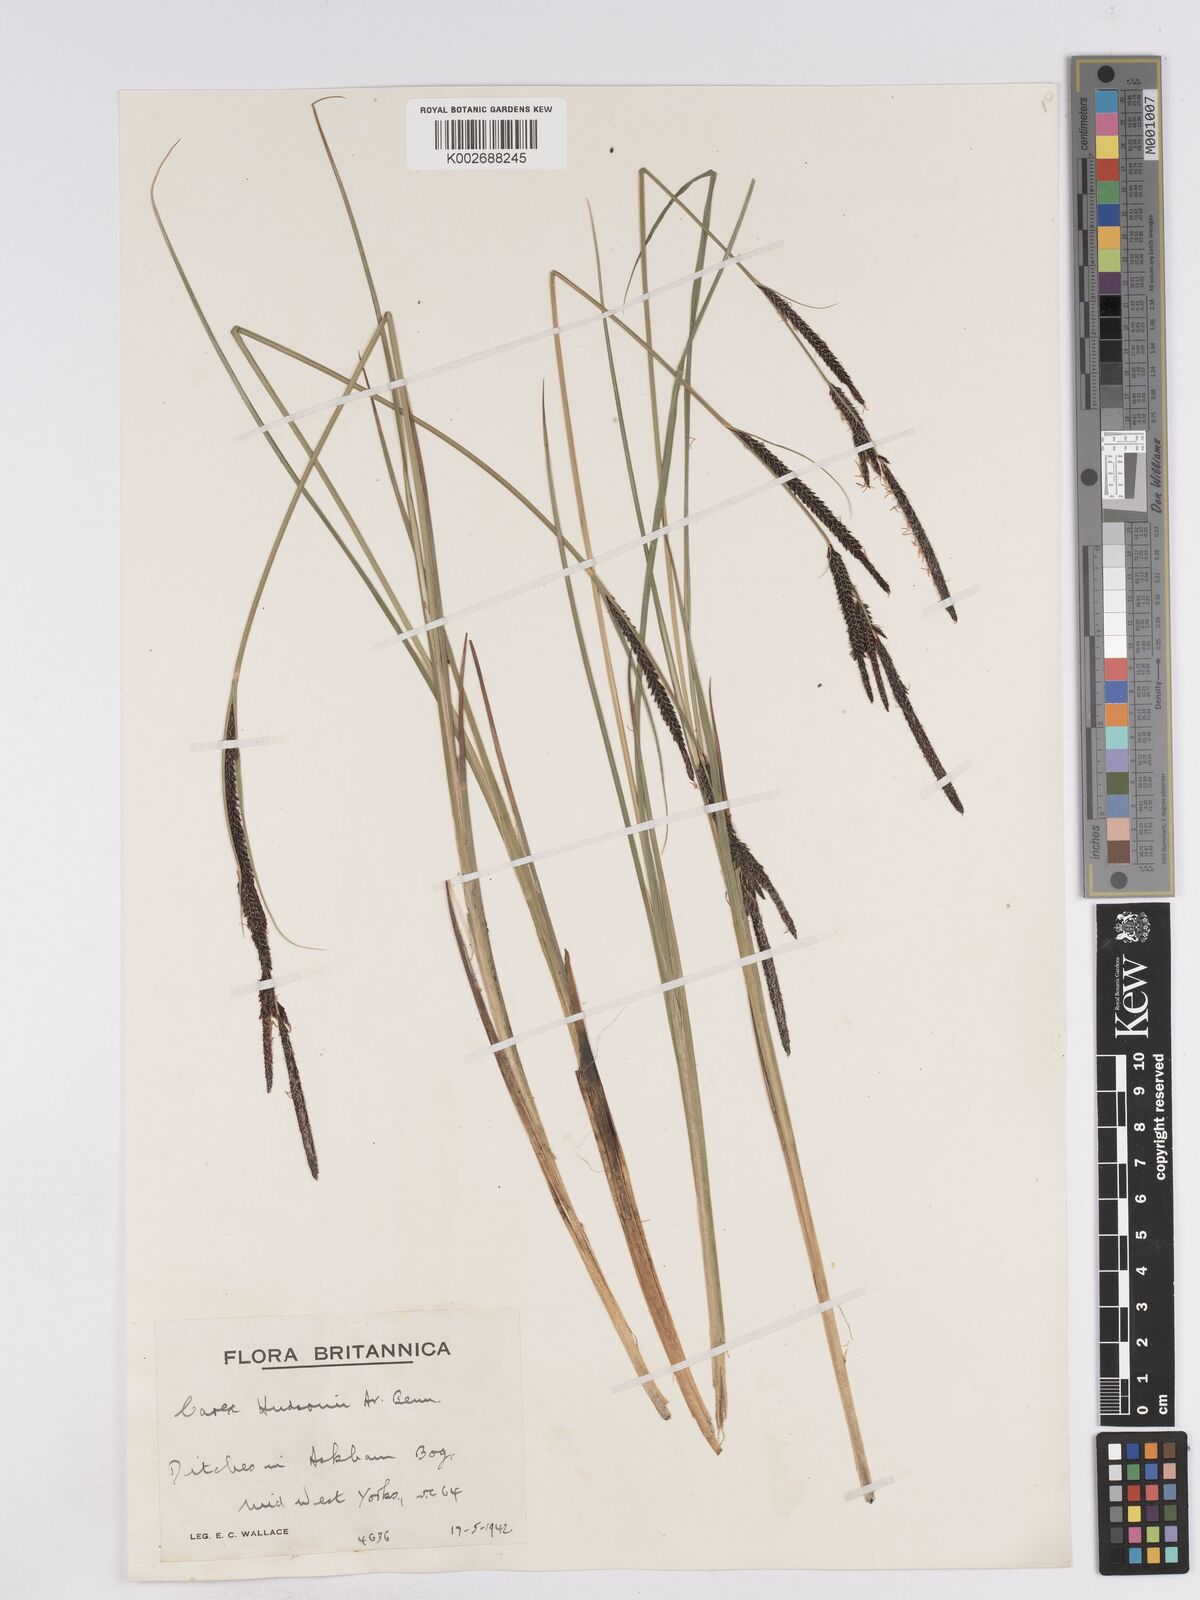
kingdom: Plantae
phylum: Tracheophyta
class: Liliopsida
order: Poales
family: Cyperaceae
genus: Carex
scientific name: Carex elata
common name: Tufted sedge
